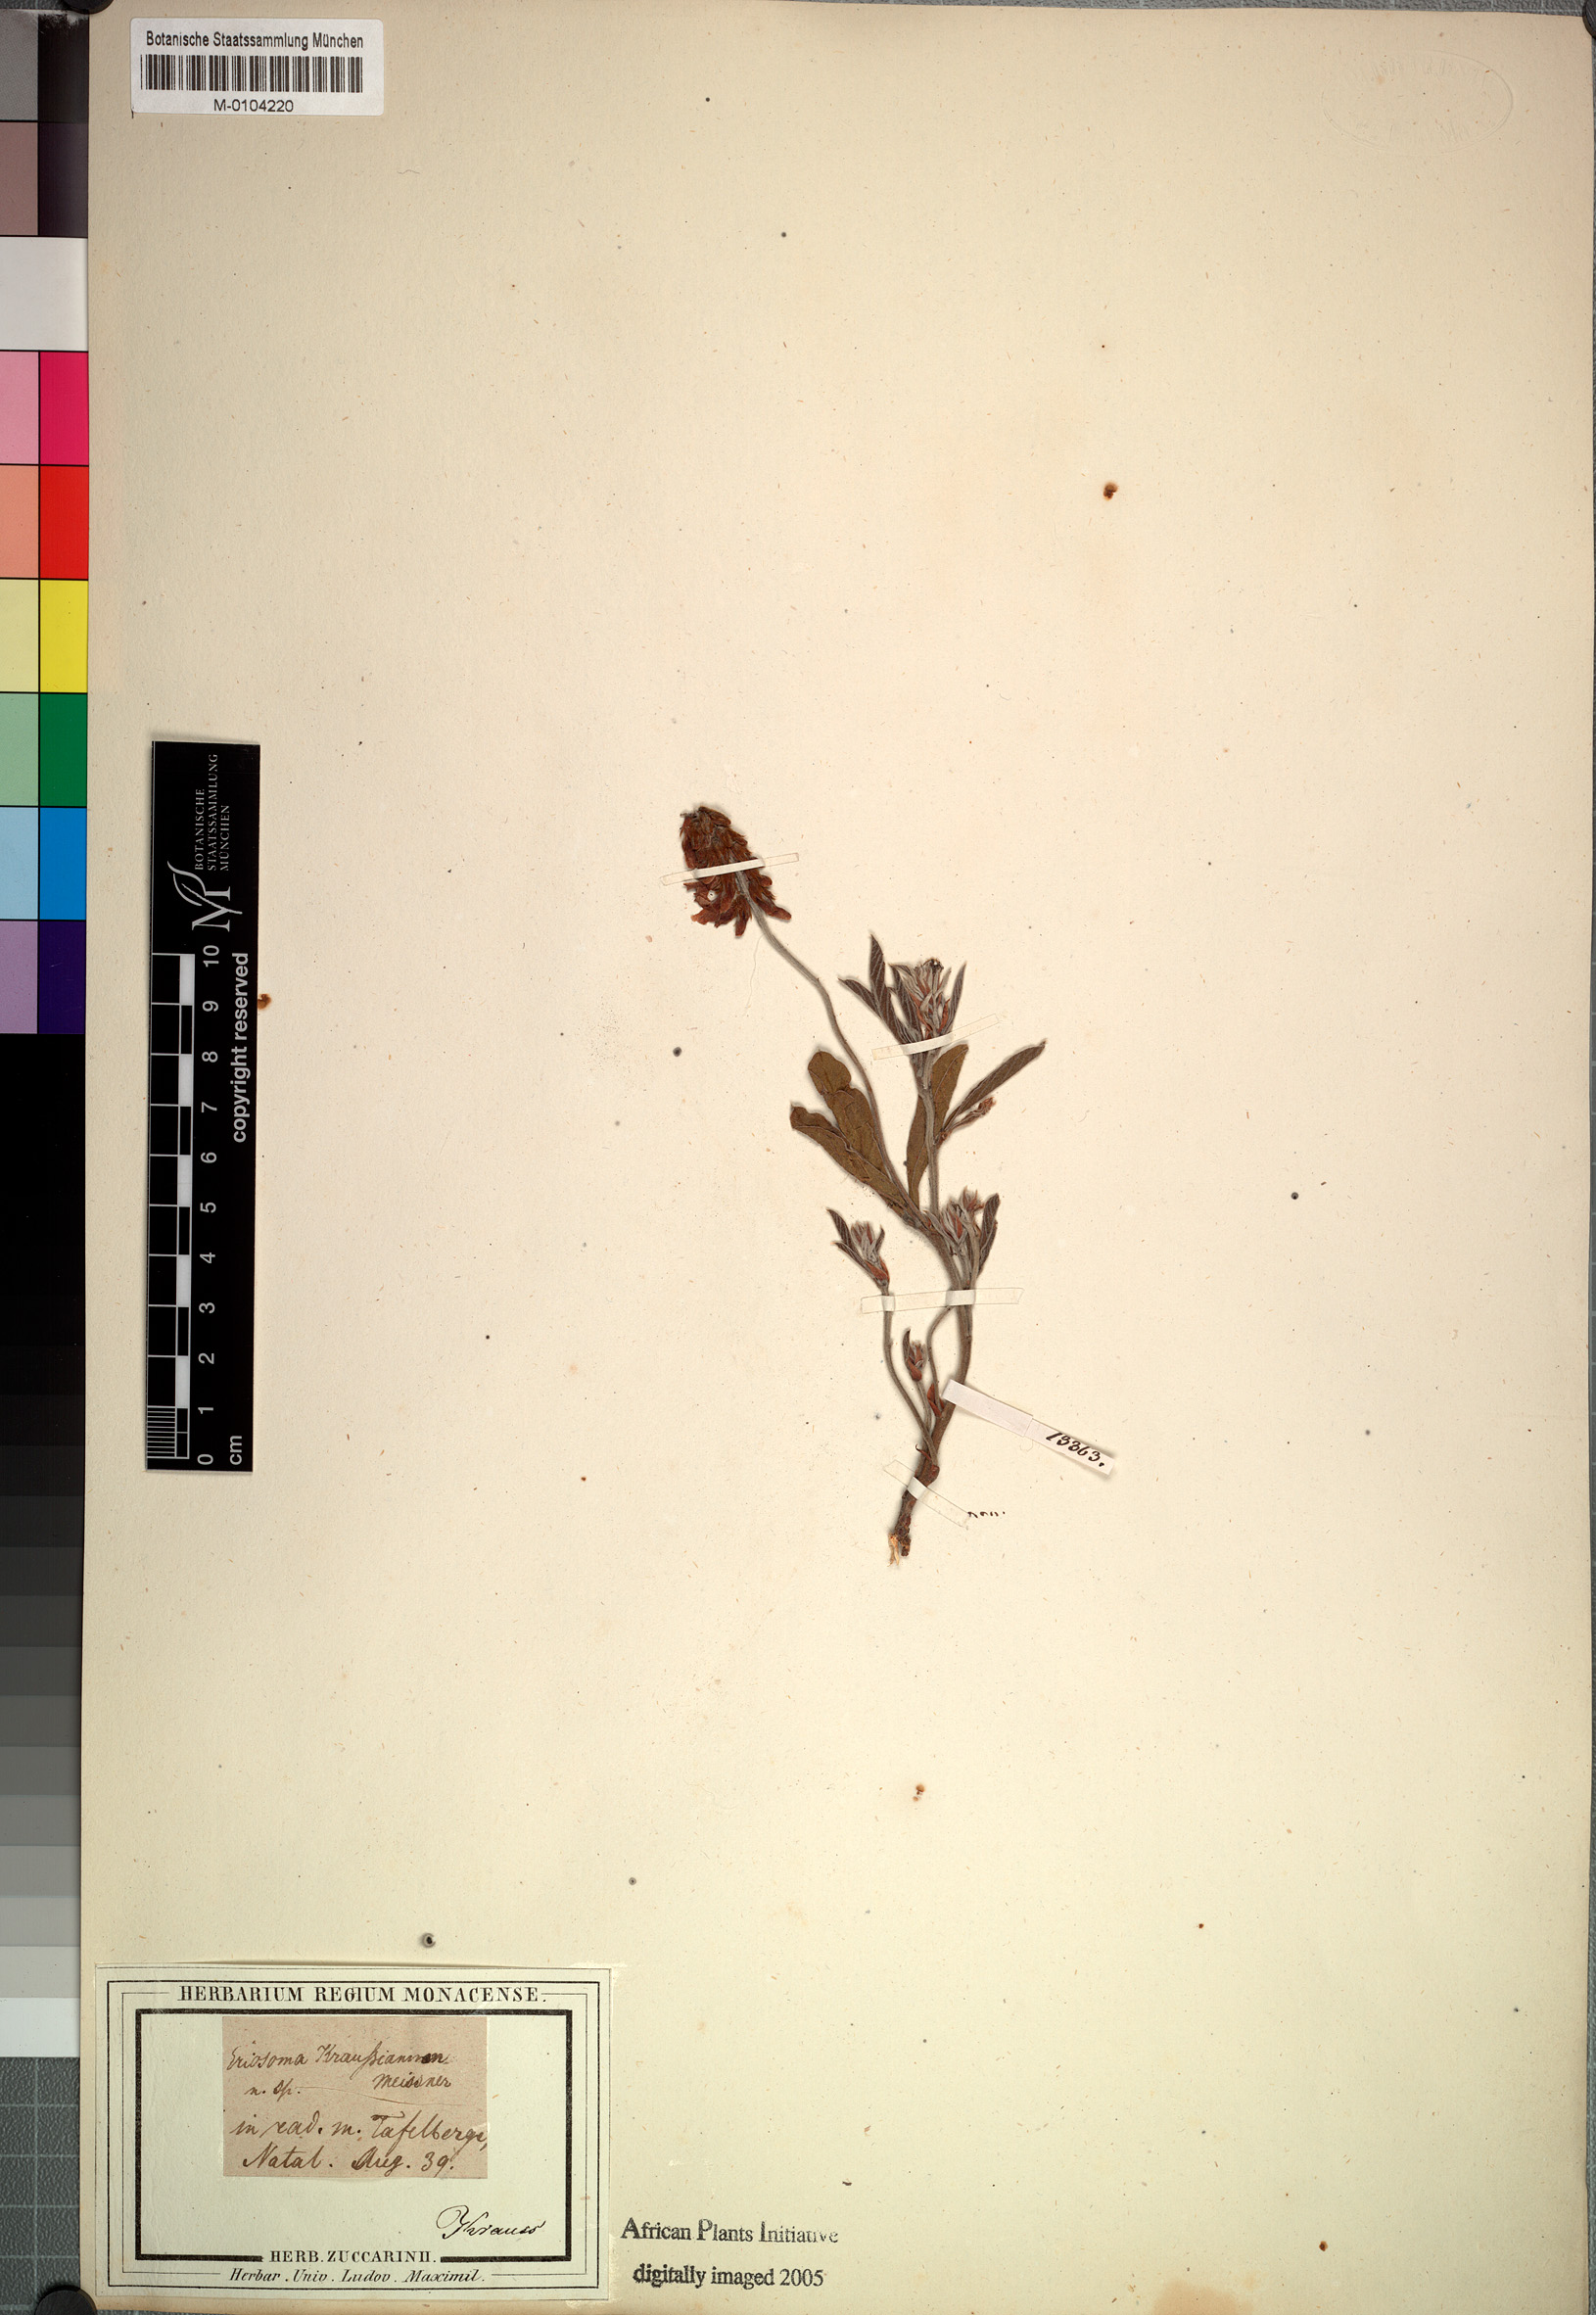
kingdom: Plantae
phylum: Tracheophyta
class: Magnoliopsida
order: Fabales
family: Fabaceae
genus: Eriosema
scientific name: Eriosema kraussianum
